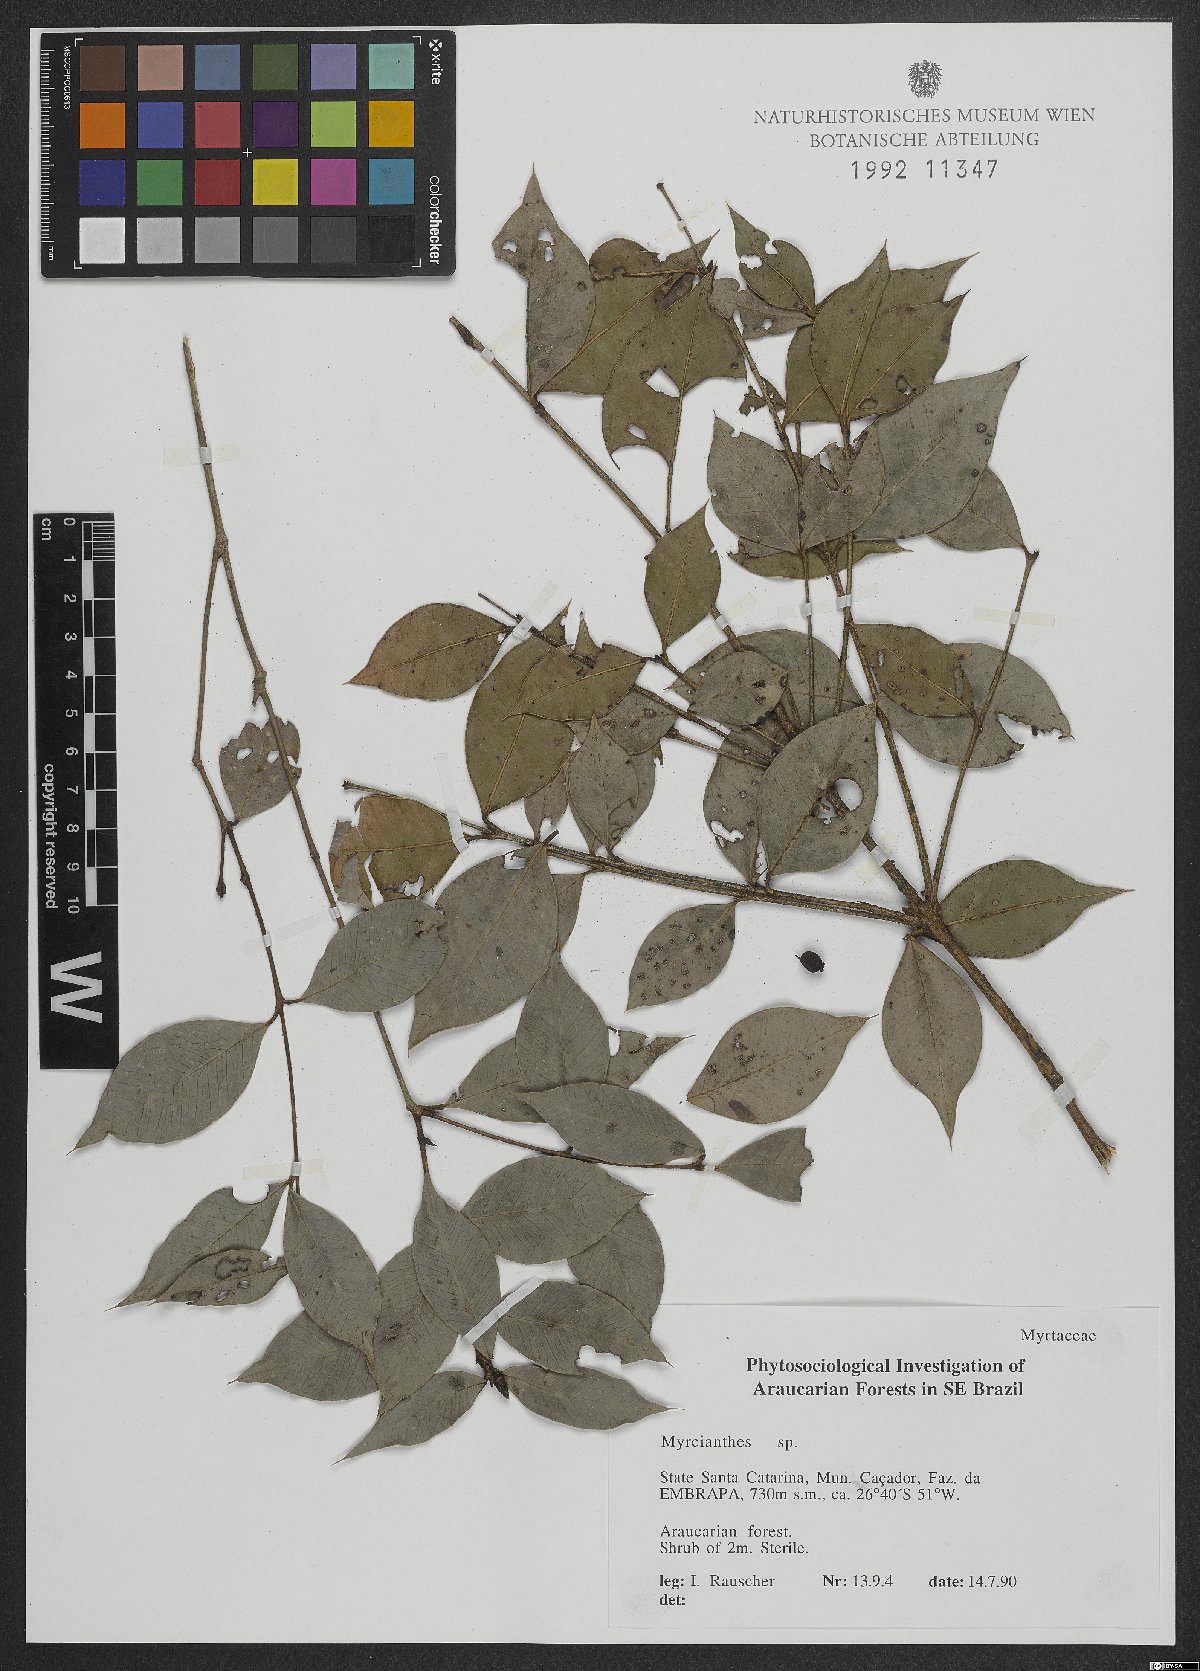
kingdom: Plantae
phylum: Tracheophyta
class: Magnoliopsida
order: Myrtales
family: Myrtaceae
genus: Myrcianthes
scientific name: Myrcianthes
